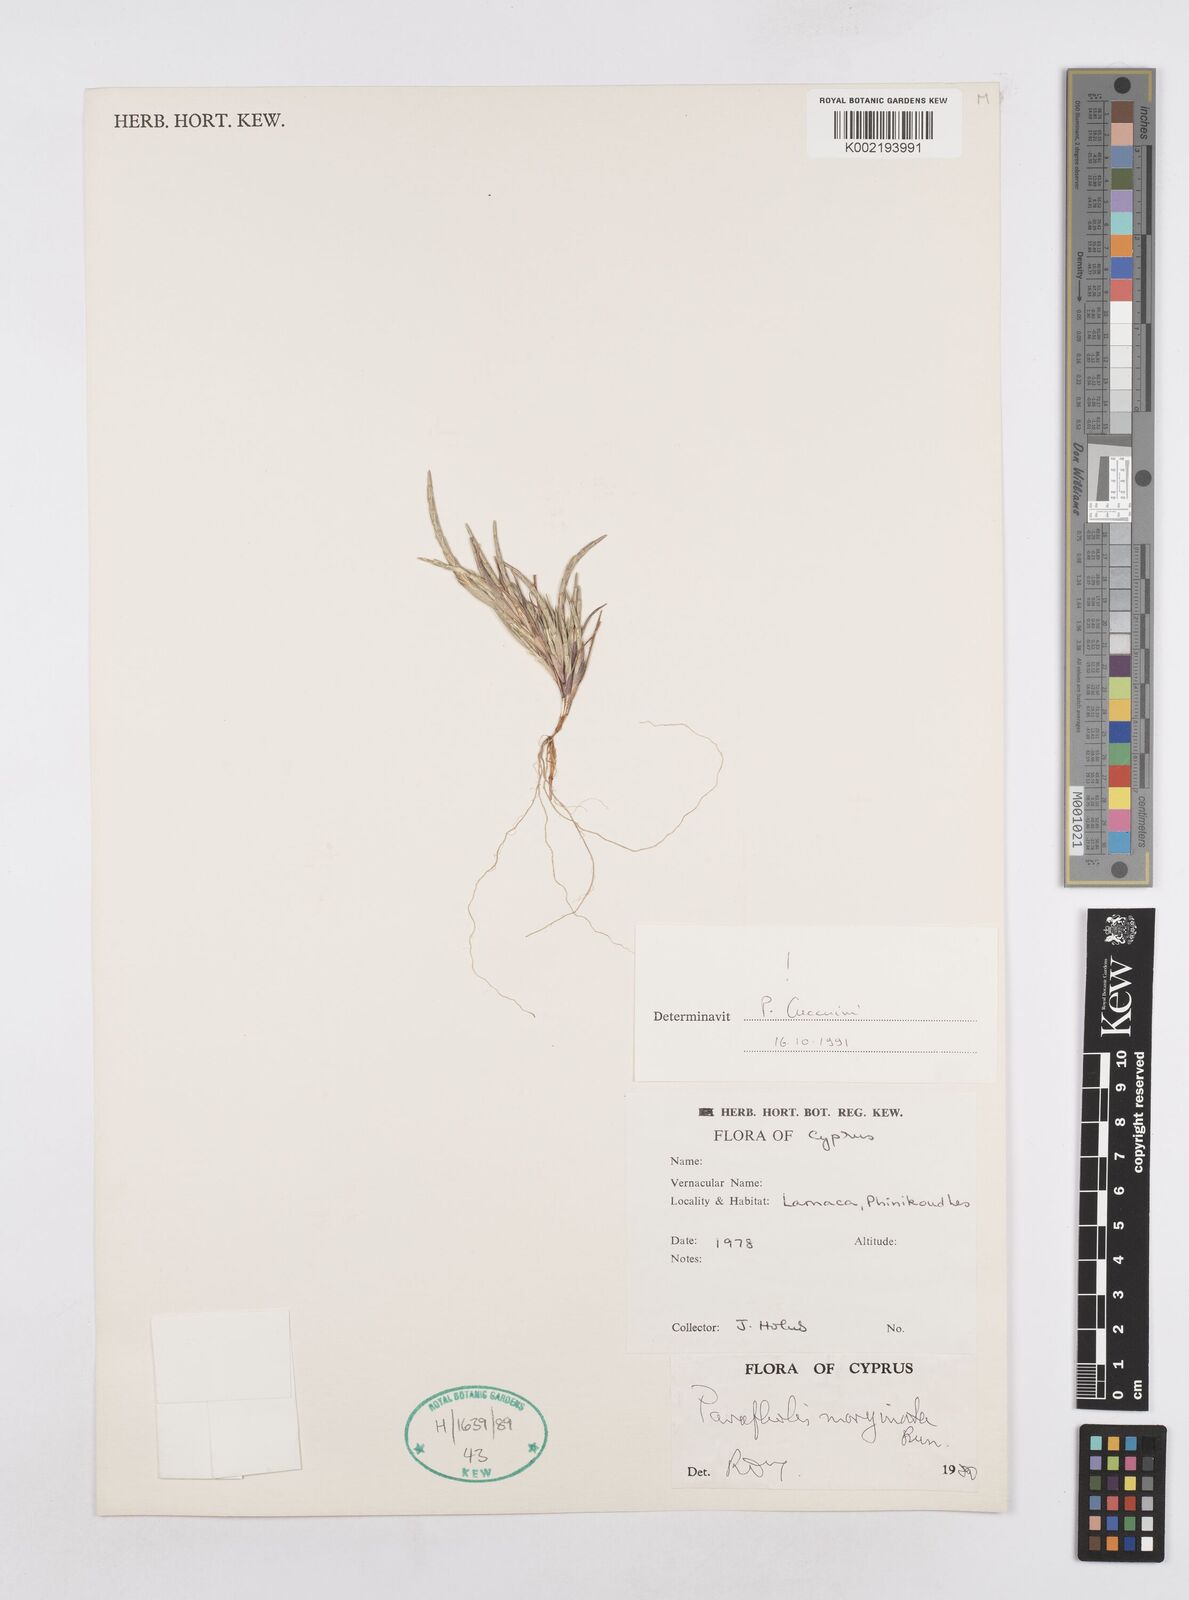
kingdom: Plantae
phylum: Tracheophyta
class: Liliopsida
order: Poales
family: Poaceae
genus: Parapholis
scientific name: Parapholis marginata
